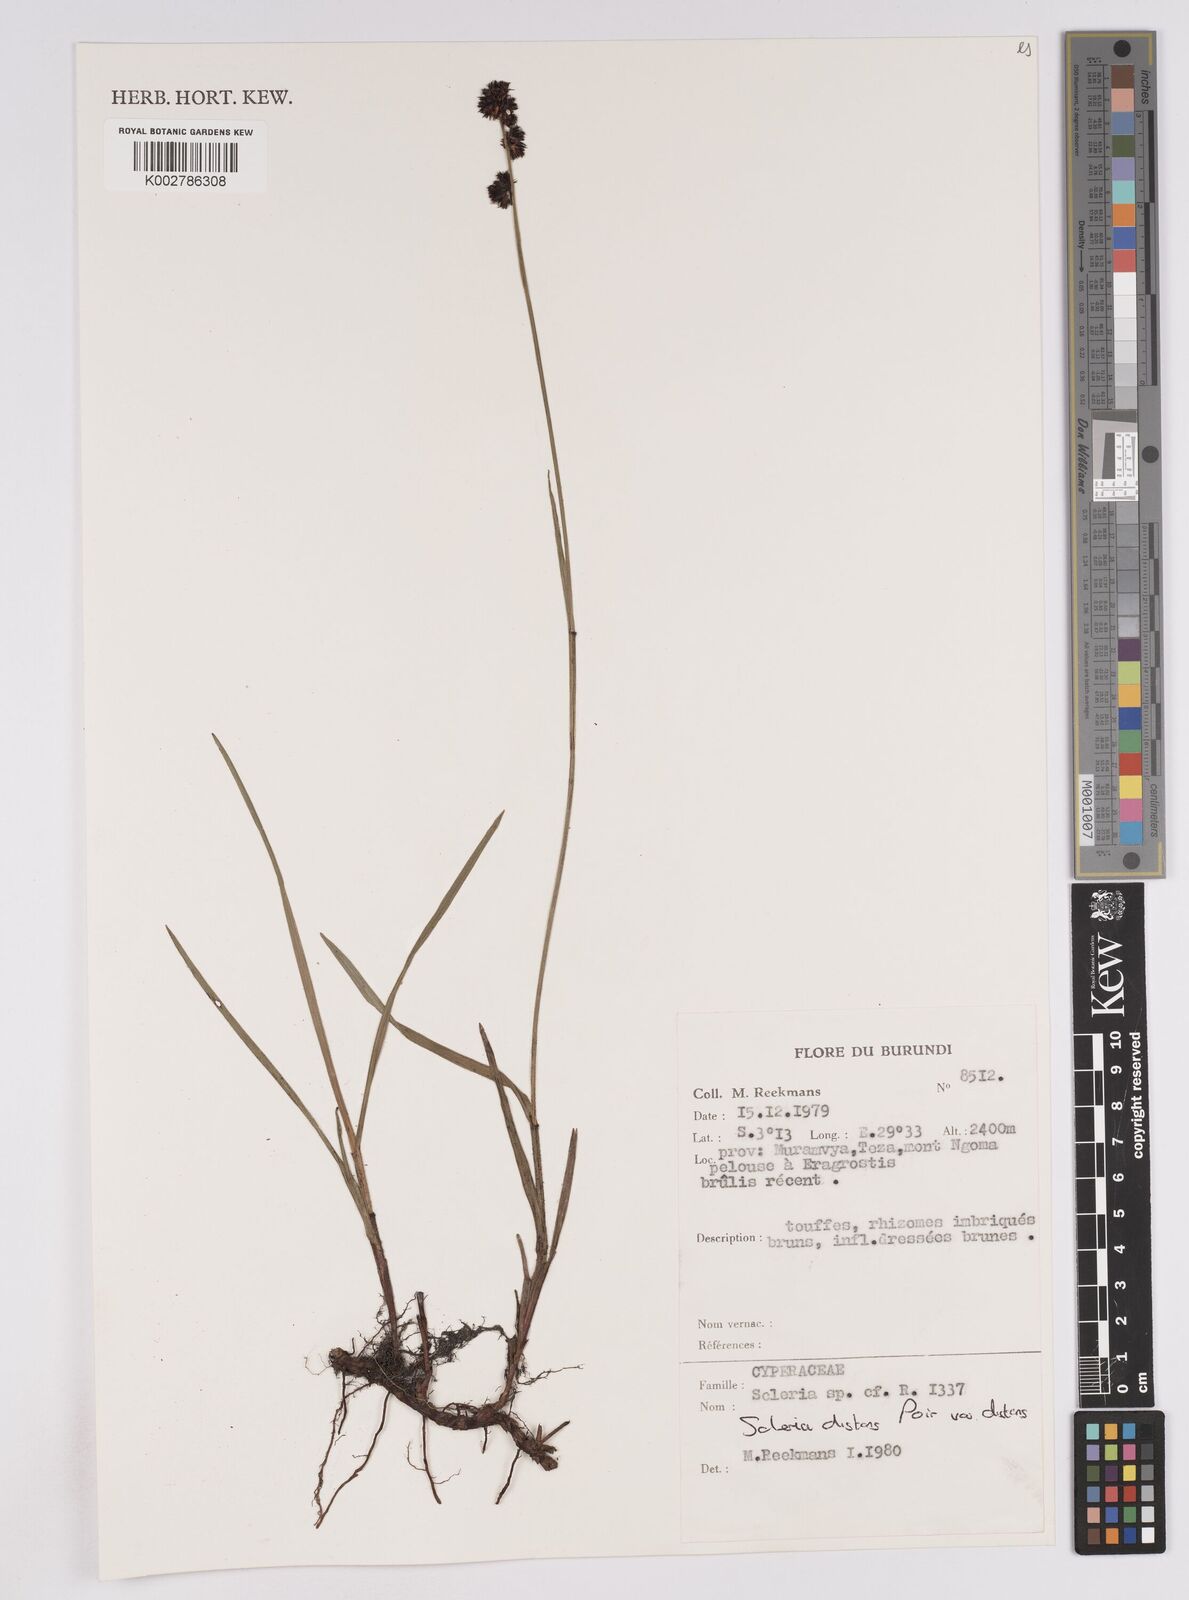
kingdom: Plantae
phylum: Tracheophyta
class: Liliopsida
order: Poales
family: Cyperaceae
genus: Scleria
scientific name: Scleria brownii
